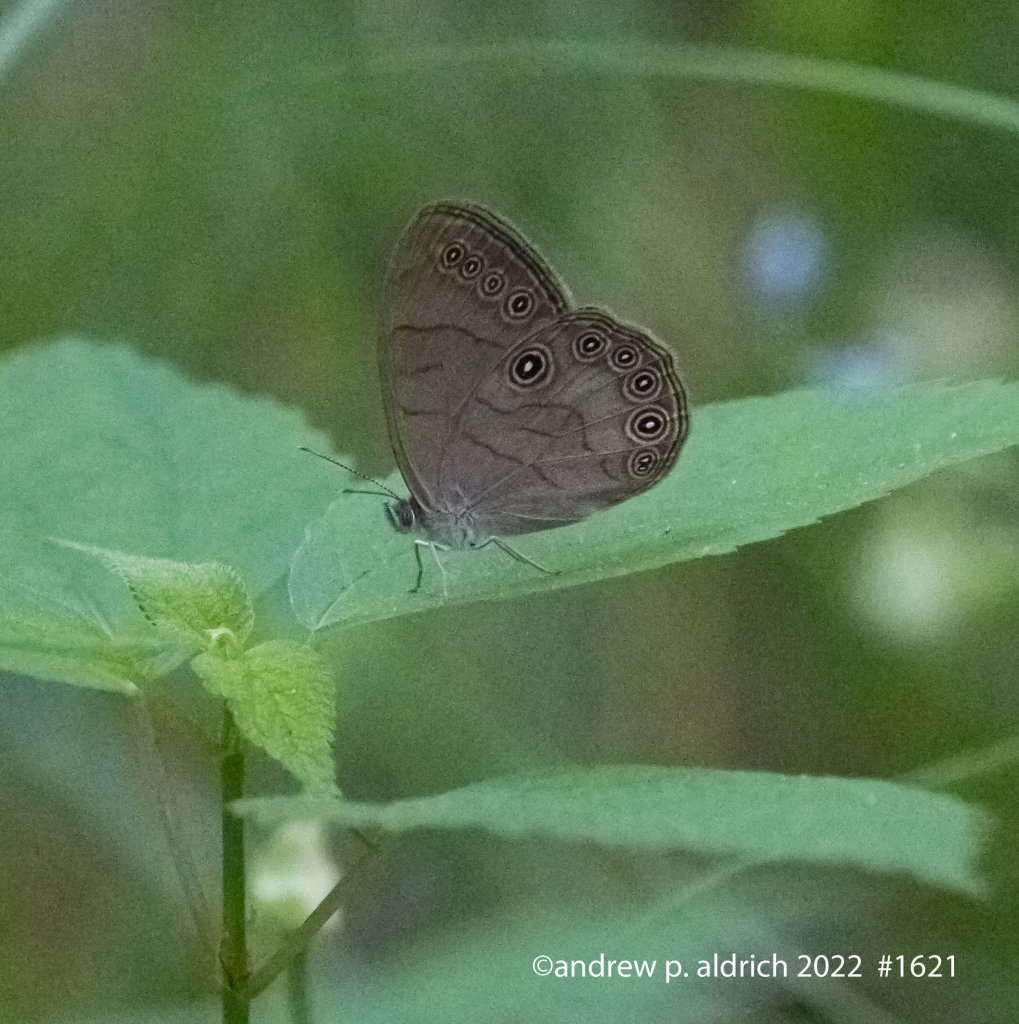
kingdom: Animalia
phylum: Arthropoda
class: Insecta
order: Lepidoptera
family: Nymphalidae
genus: Lethe
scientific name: Lethe eurydice
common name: Appalachian Eyed Brown
